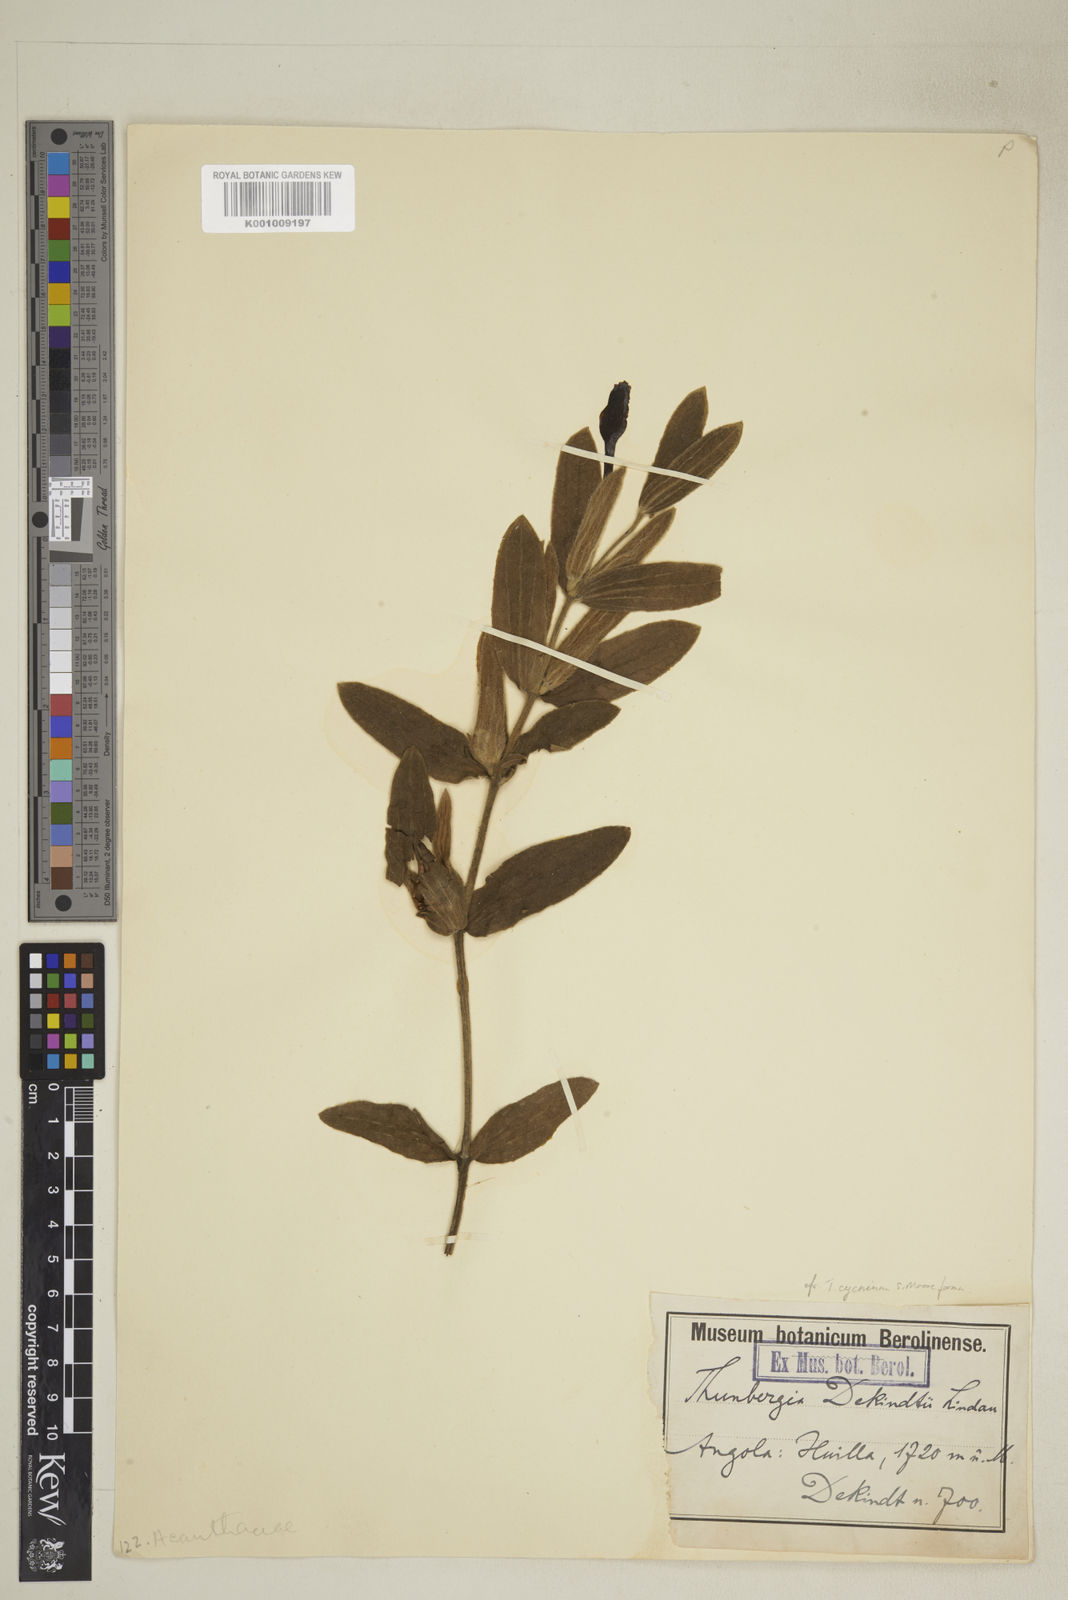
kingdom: Plantae
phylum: Tracheophyta
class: Magnoliopsida
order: Lamiales
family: Acanthaceae
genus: Thunbergia
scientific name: Thunbergia cycnium
